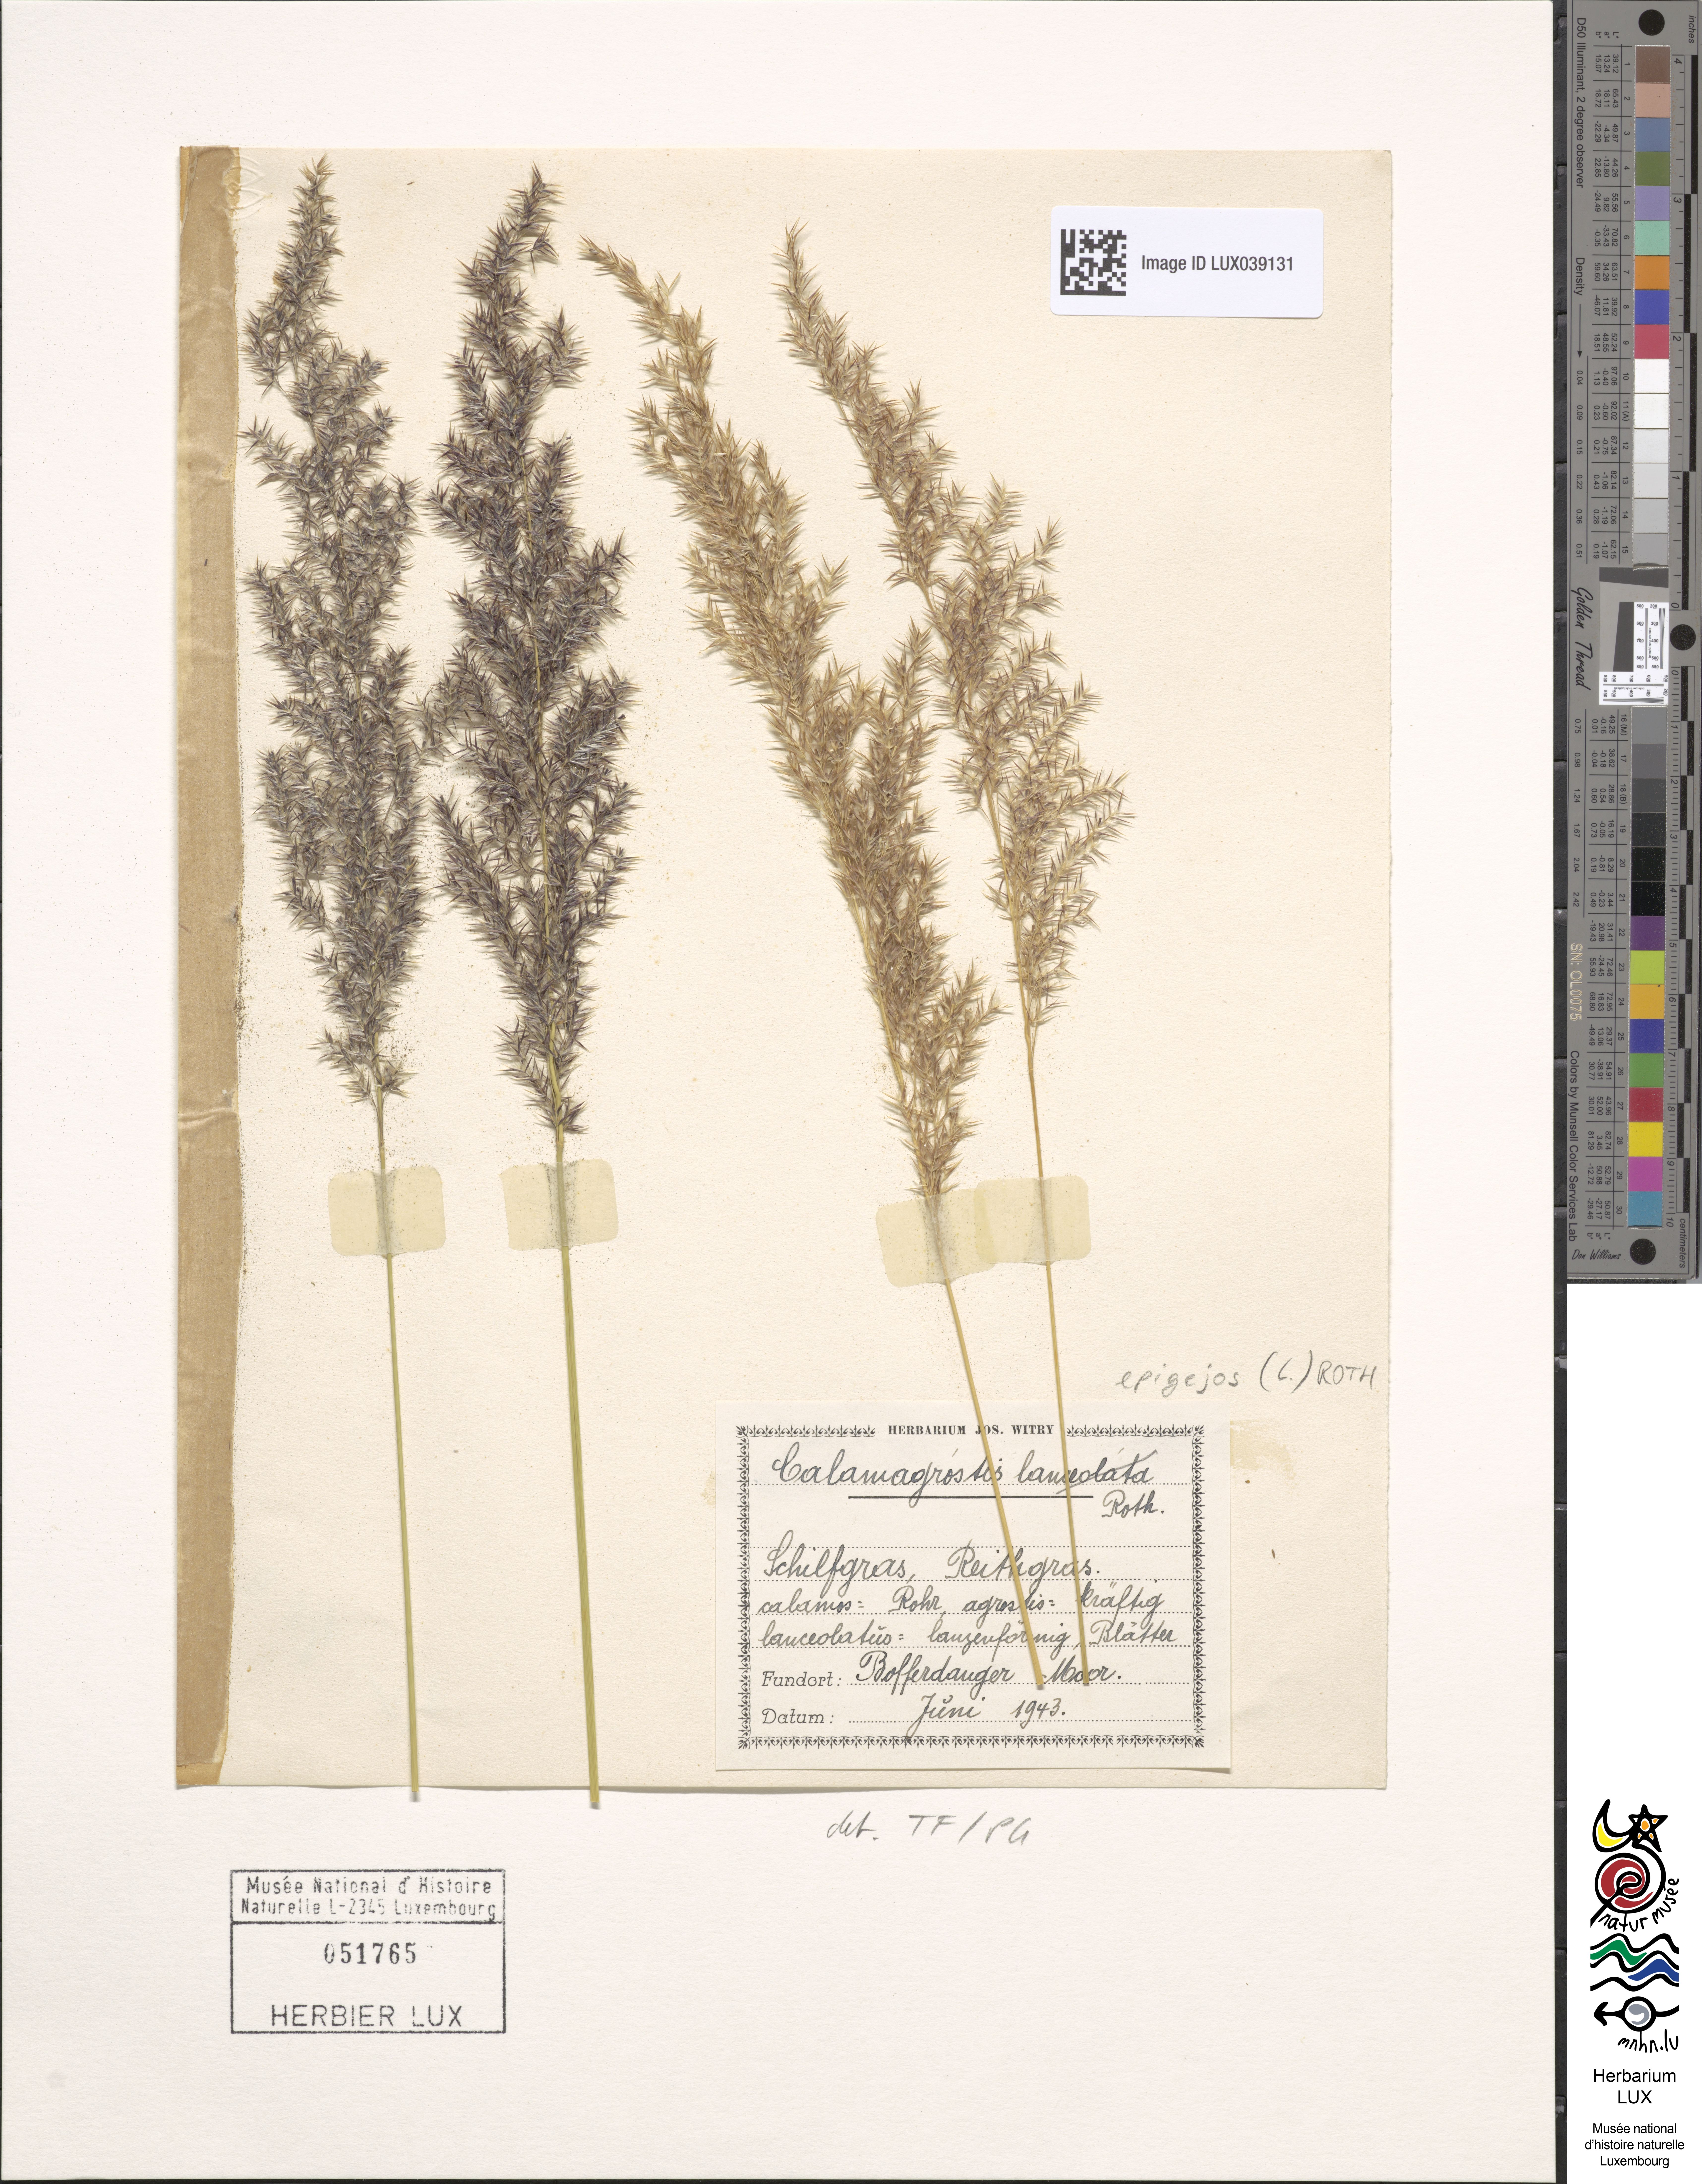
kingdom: Plantae
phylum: Tracheophyta
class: Liliopsida
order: Poales
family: Poaceae
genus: Calamagrostis
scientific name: Calamagrostis epigejos
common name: Wood small-reed
